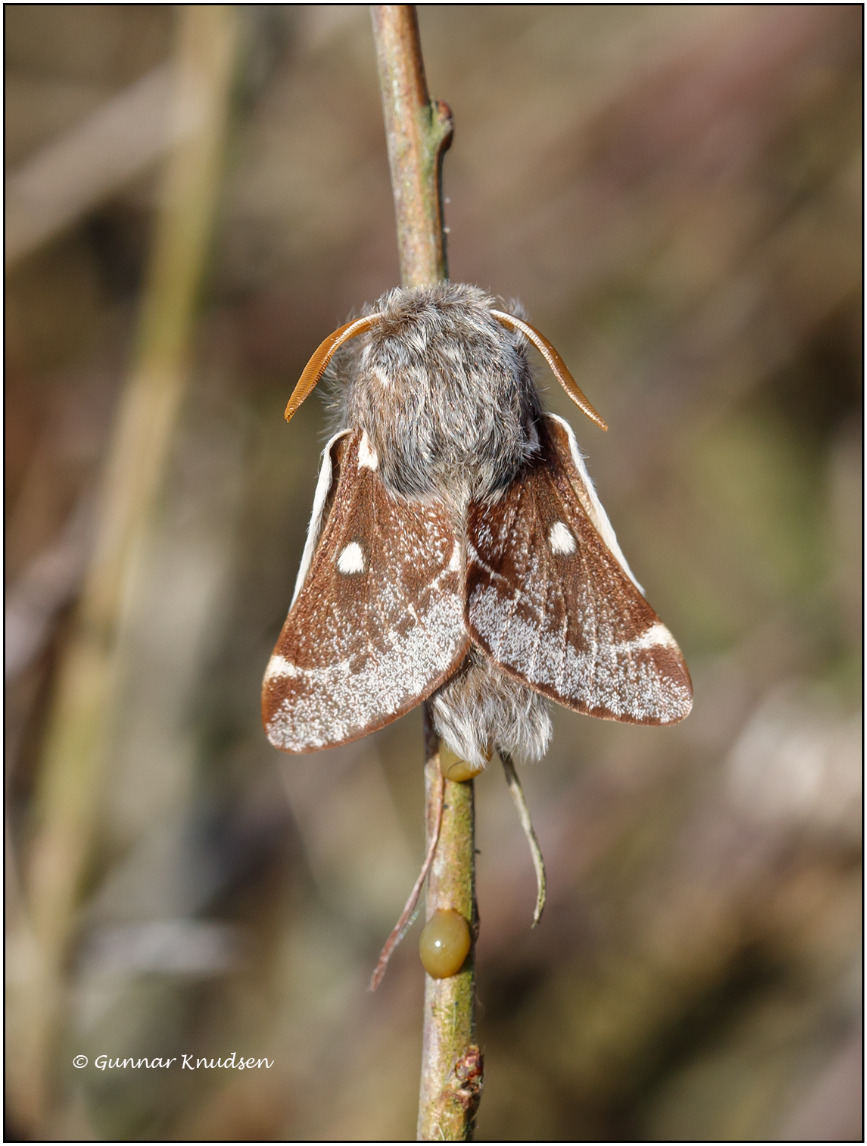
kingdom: Animalia
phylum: Arthropoda
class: Insecta
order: Lepidoptera
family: Lasiocampidae
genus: Eriogaster
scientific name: Eriogaster lanestris
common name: Uldhale
